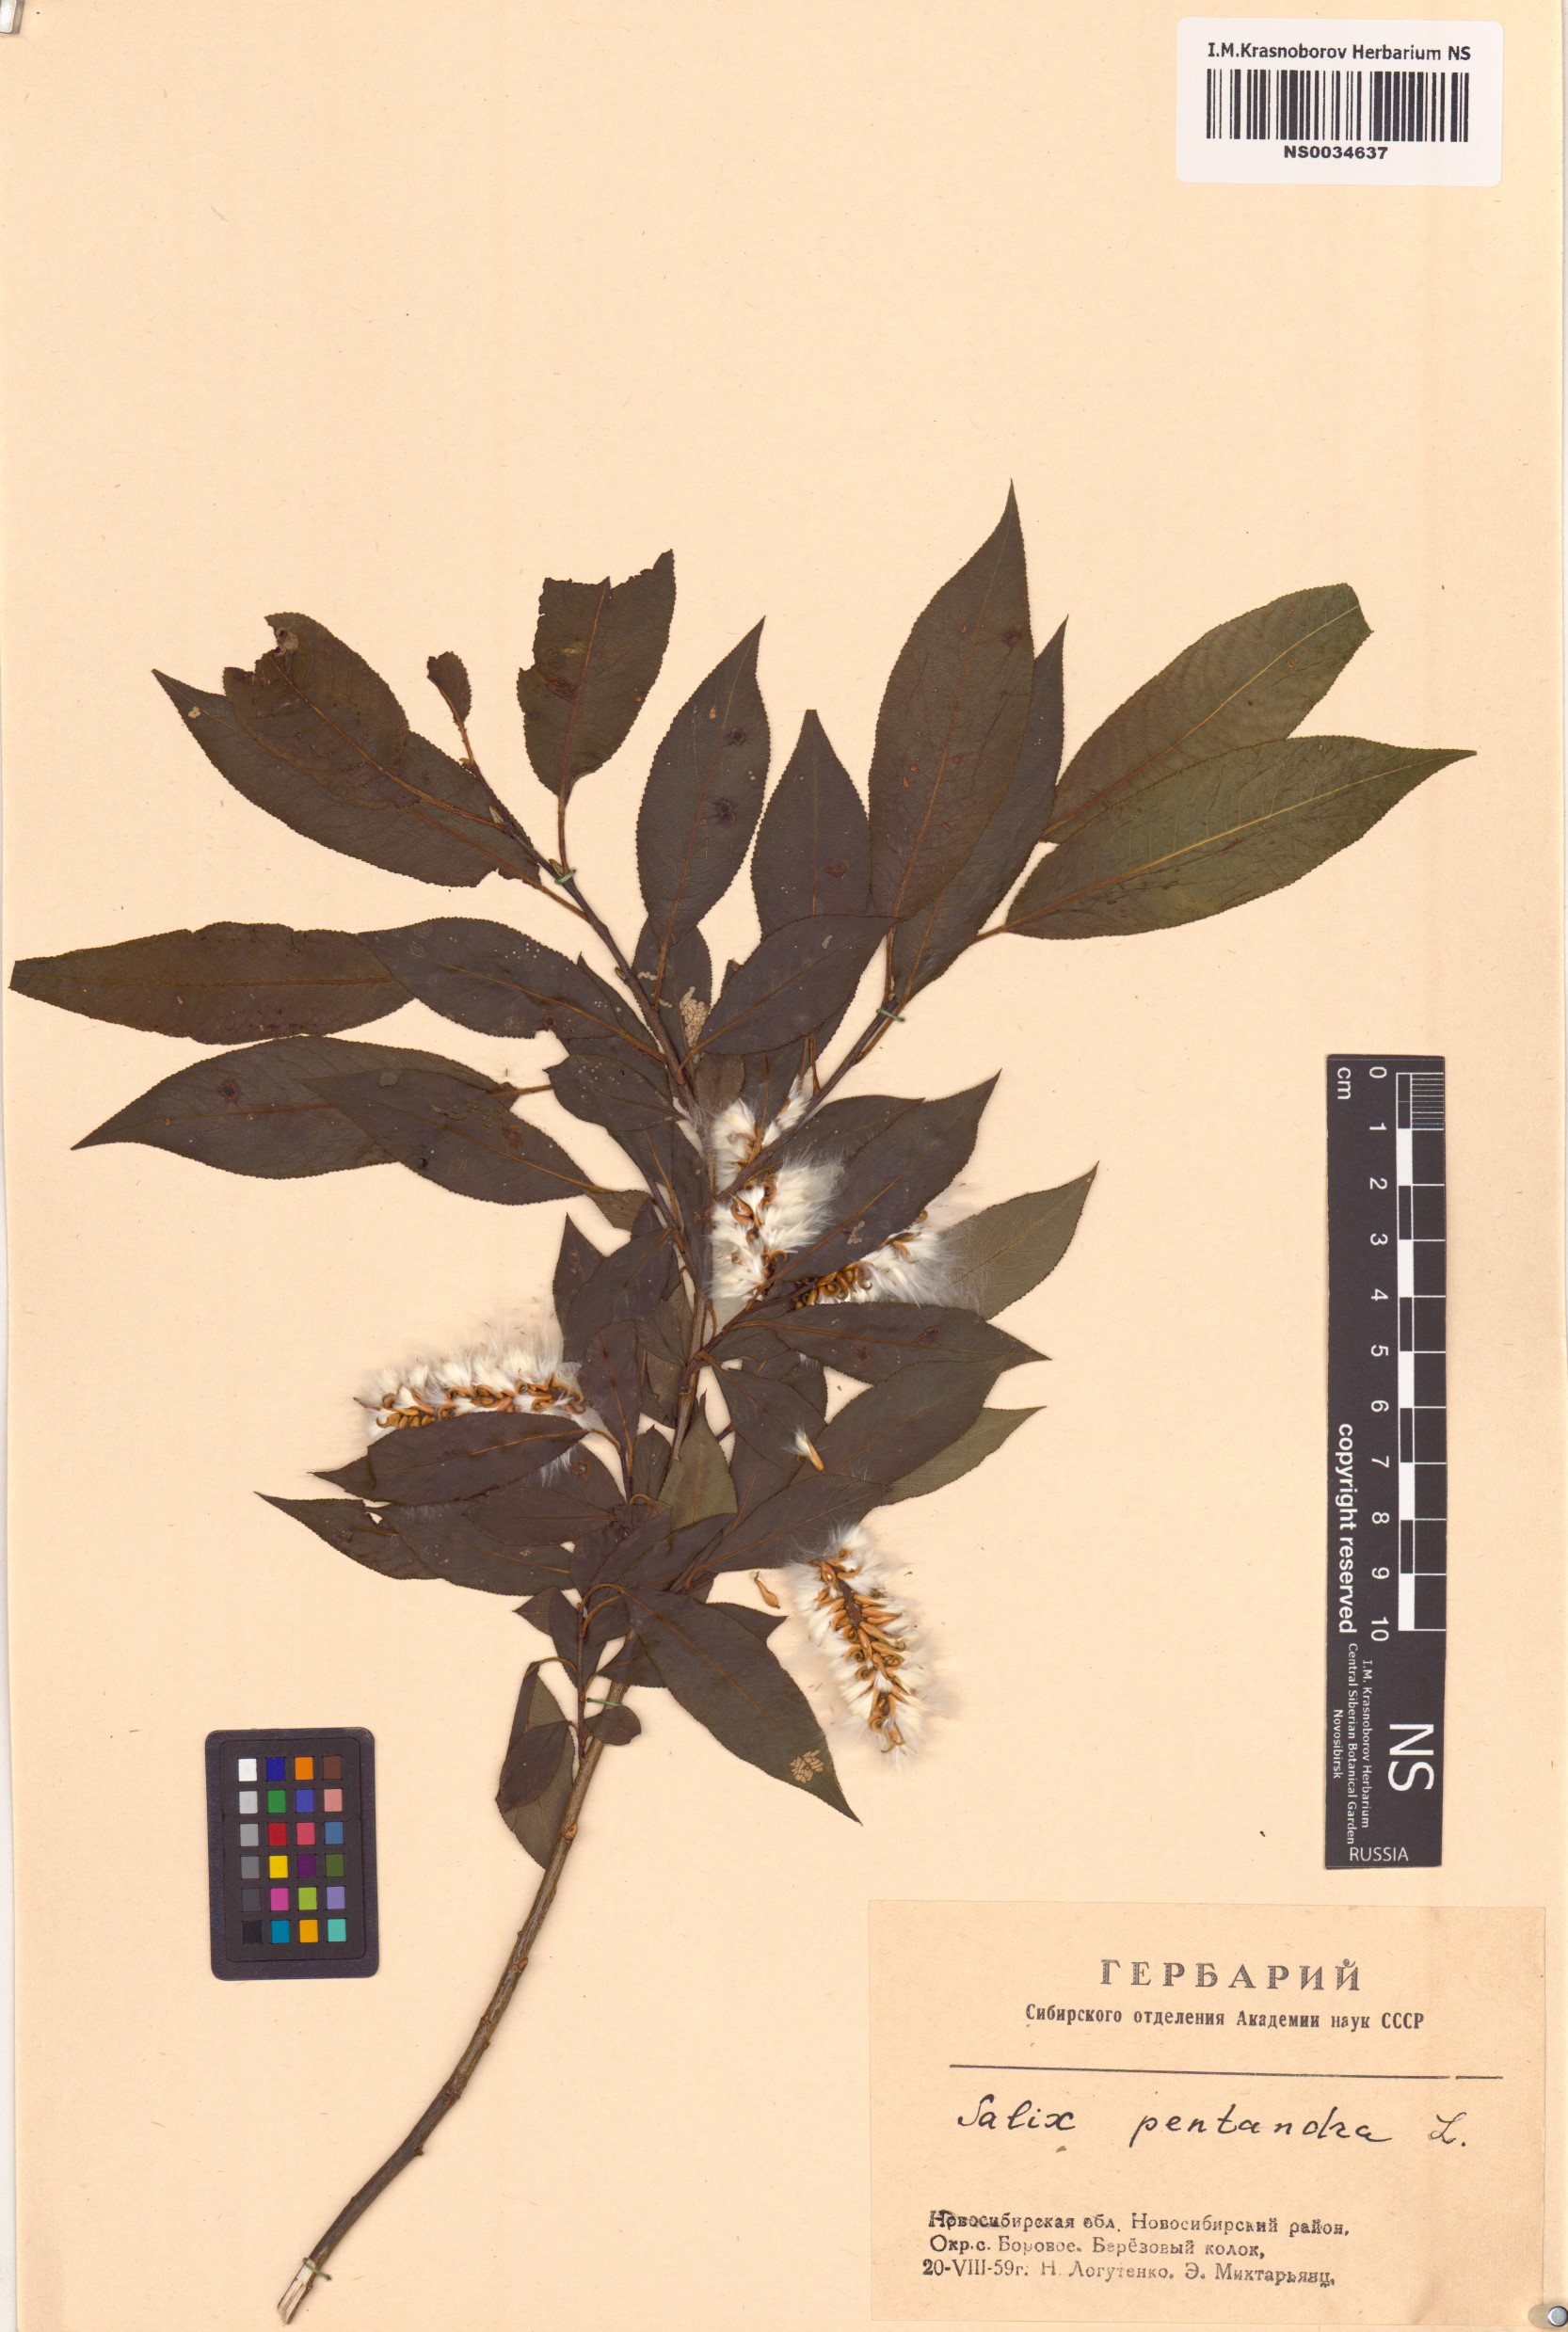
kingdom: Plantae
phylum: Tracheophyta
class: Magnoliopsida
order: Malpighiales
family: Salicaceae
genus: Salix
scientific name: Salix pentandra
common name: Bay willow
